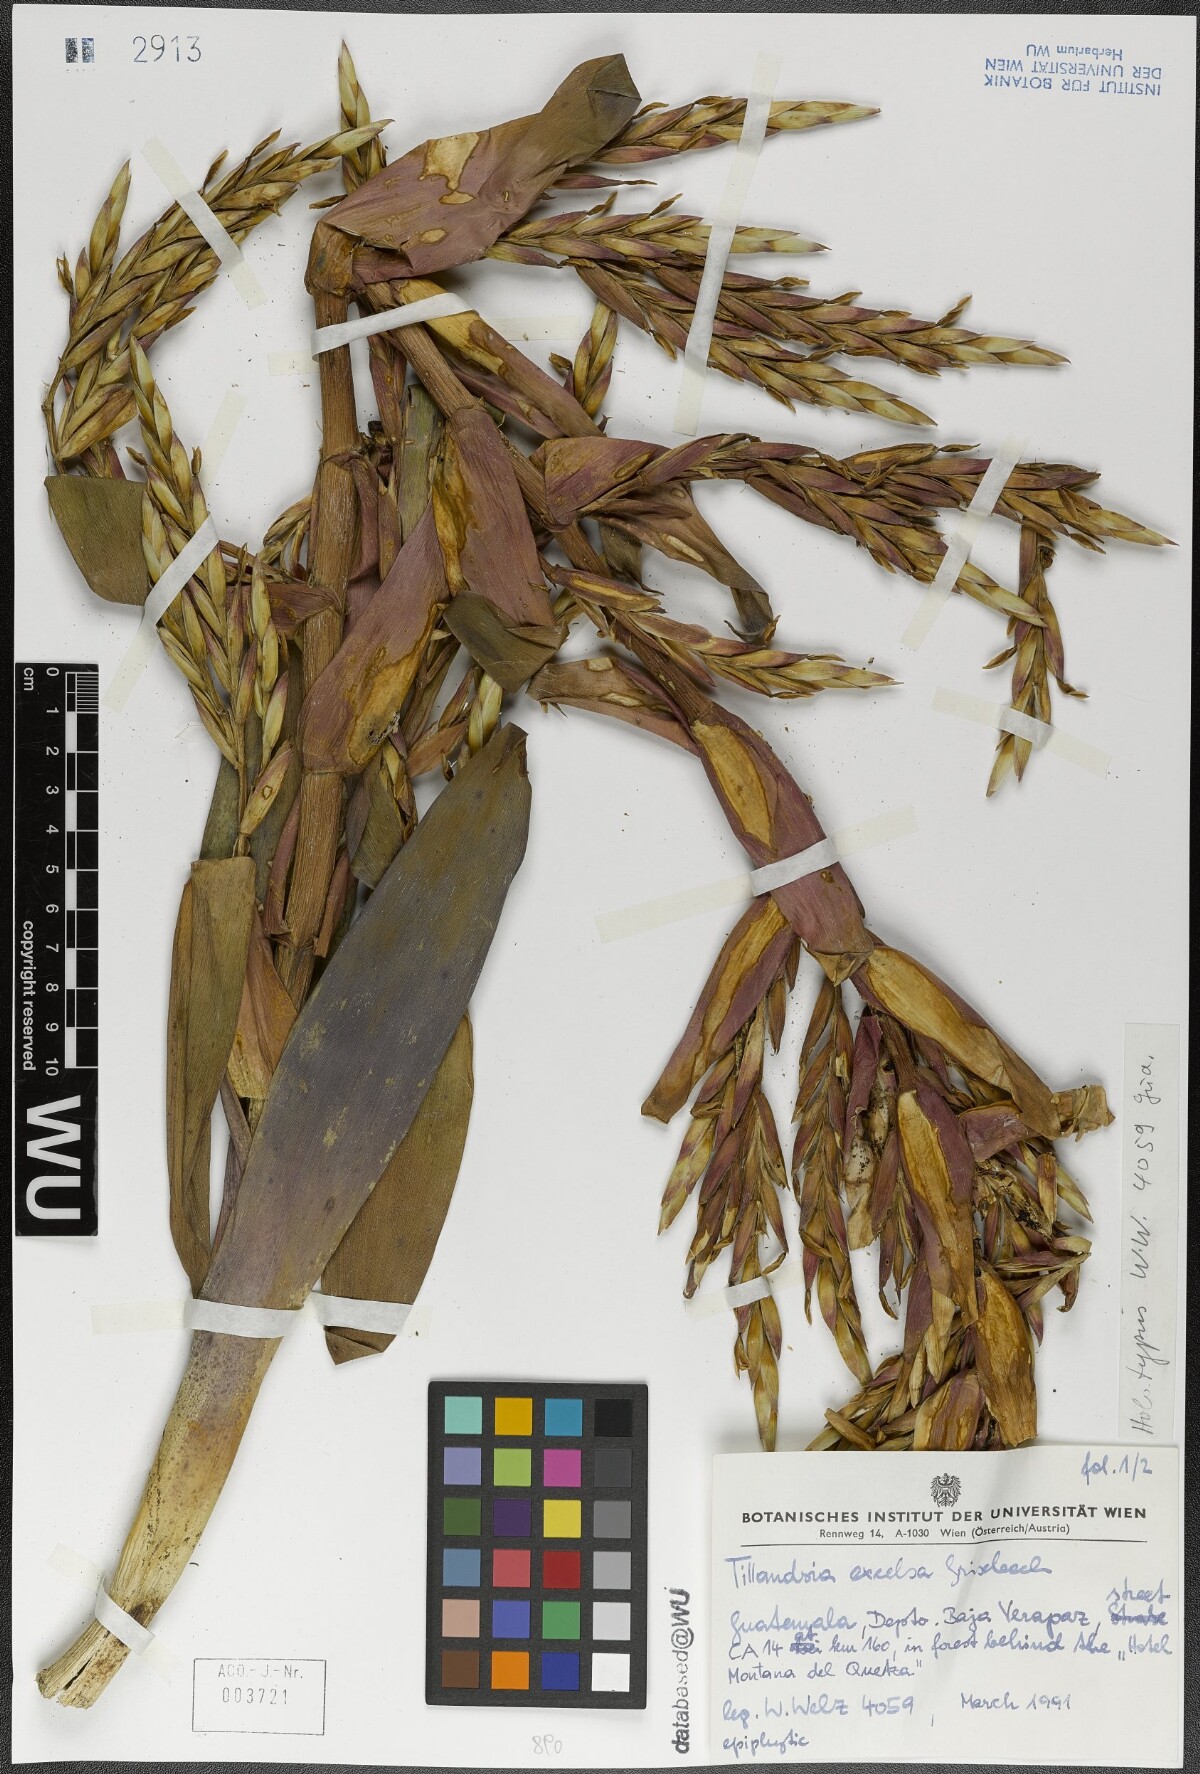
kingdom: Plantae
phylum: Tracheophyta
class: Liliopsida
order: Poales
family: Bromeliaceae
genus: Tillandsia
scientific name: Tillandsia excelsa
